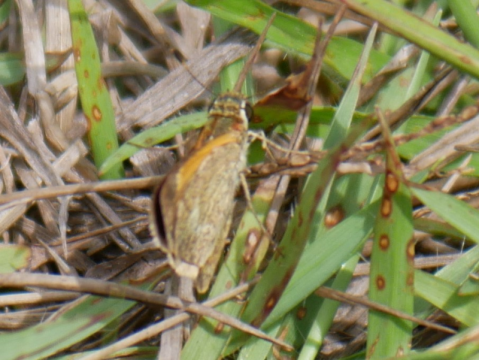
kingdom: Animalia
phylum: Arthropoda
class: Insecta
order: Lepidoptera
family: Hesperiidae
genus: Polites
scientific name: Polites baracoa
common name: Baracoa Skipper
